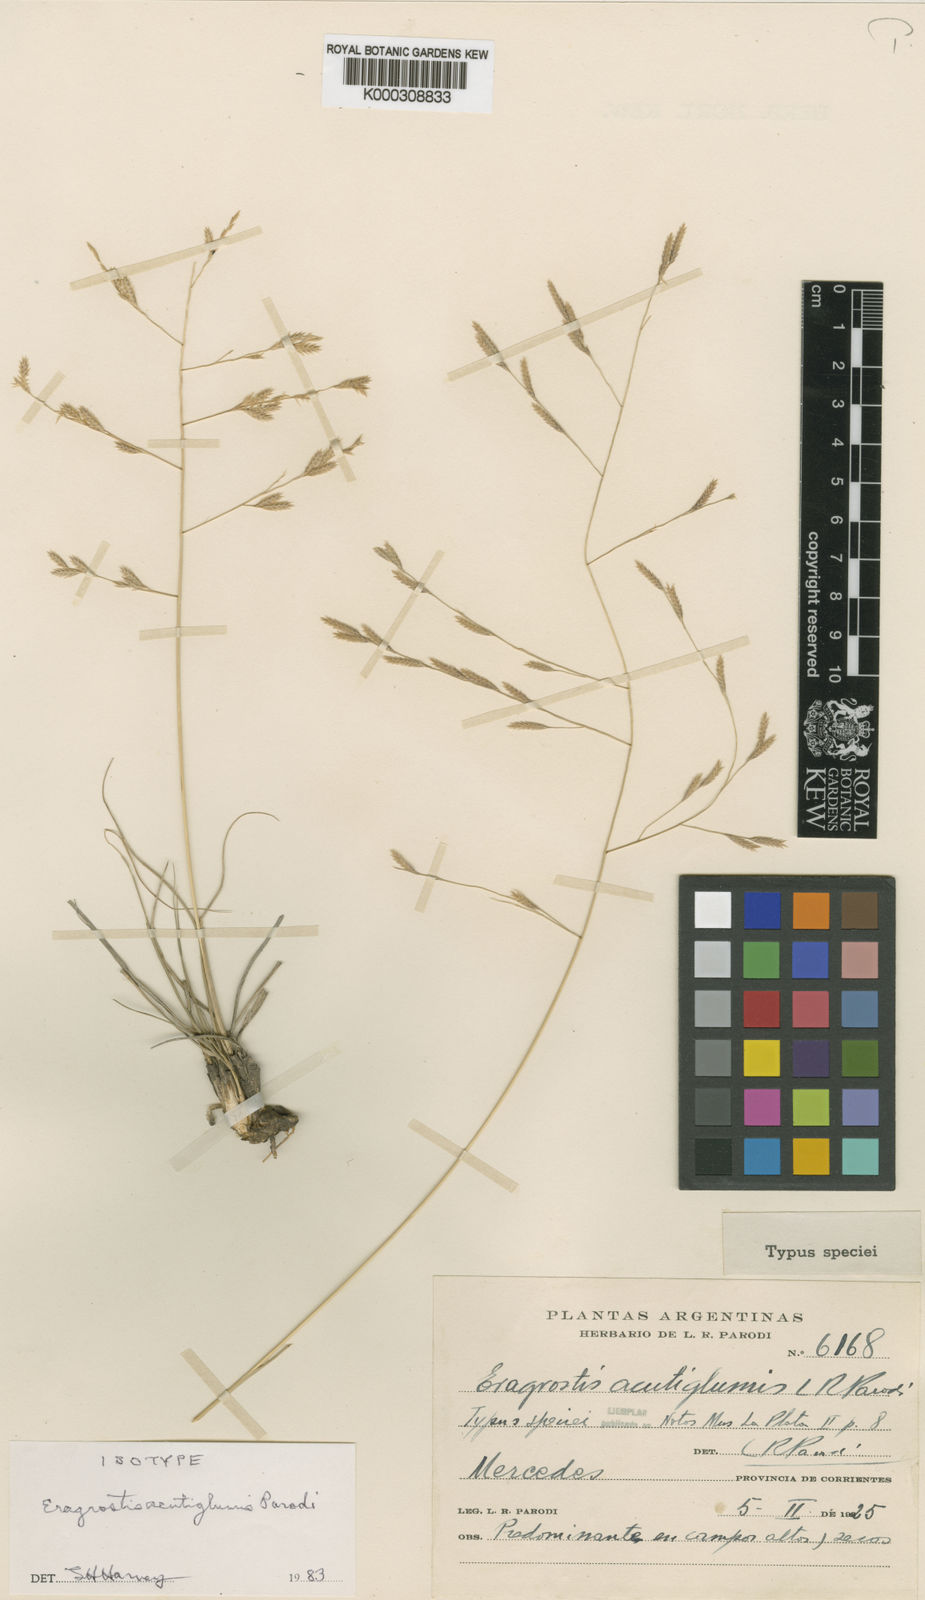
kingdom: Plantae
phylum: Tracheophyta
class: Liliopsida
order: Poales
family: Poaceae
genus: Eragrostis
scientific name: Eragrostis acutiglumis
